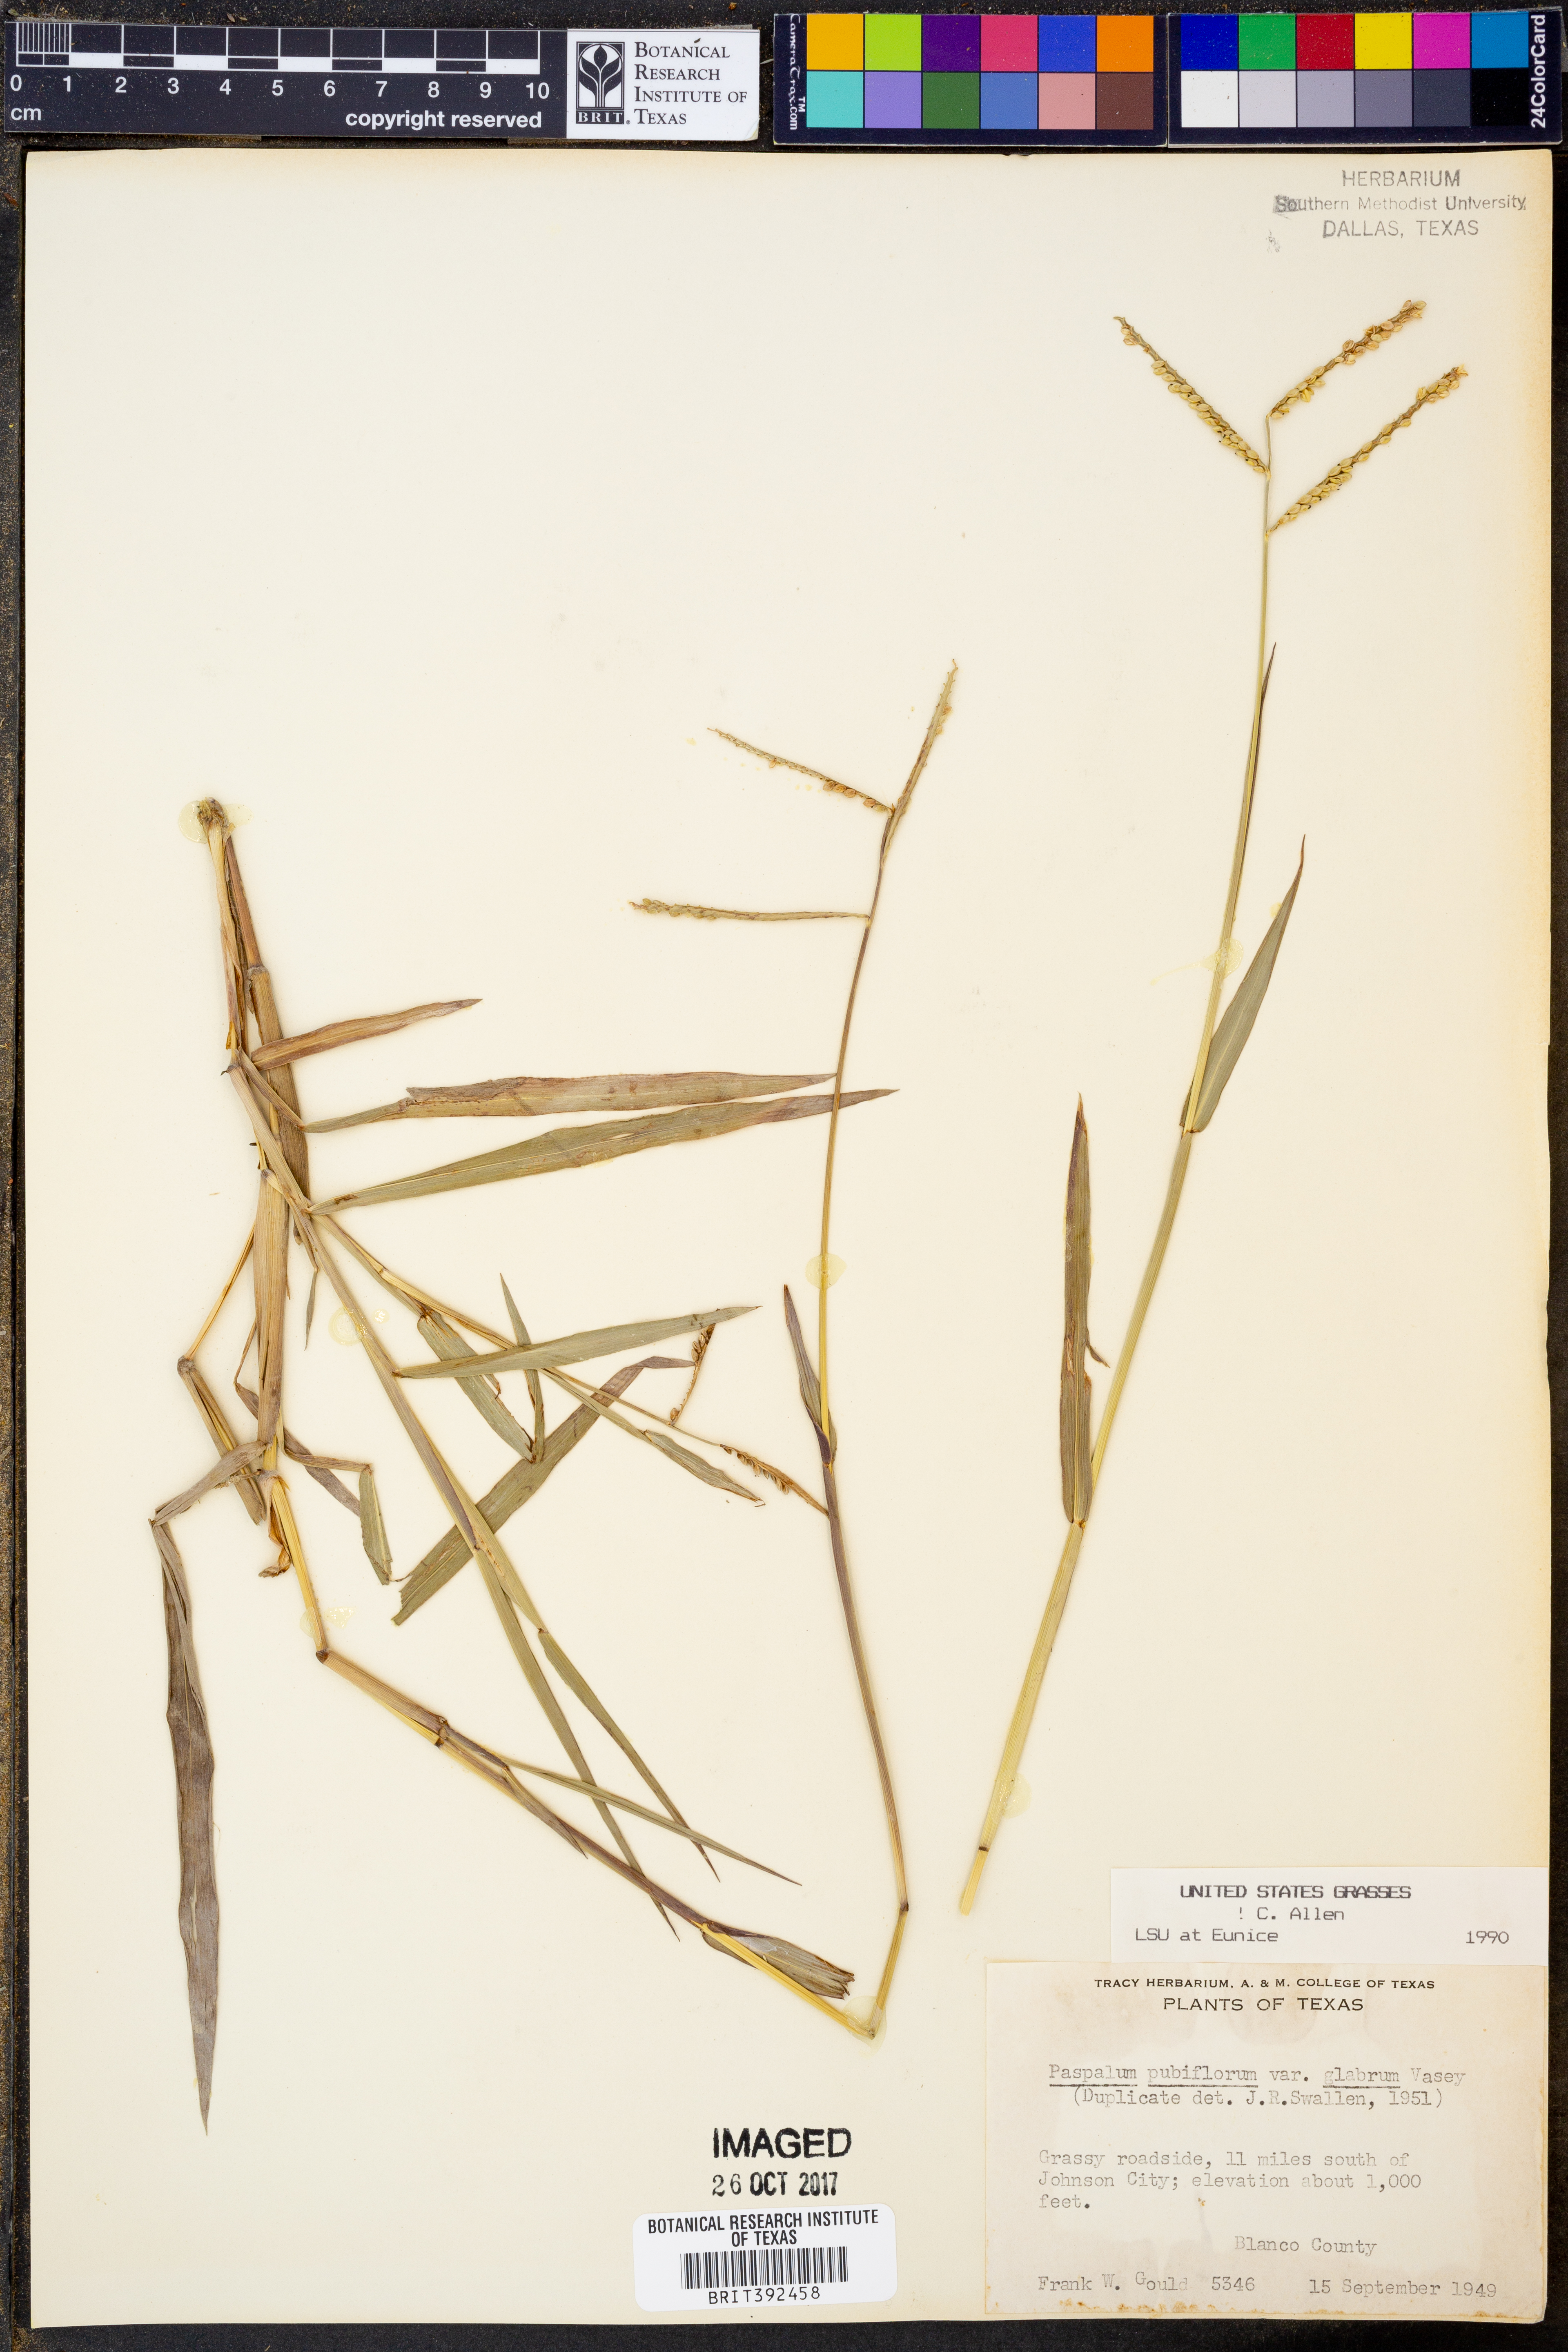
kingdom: Plantae
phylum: Tracheophyta
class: Liliopsida
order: Poales
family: Poaceae
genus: Paspalum
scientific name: Paspalum pubiflorum
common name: Hairy-seed paspalum
